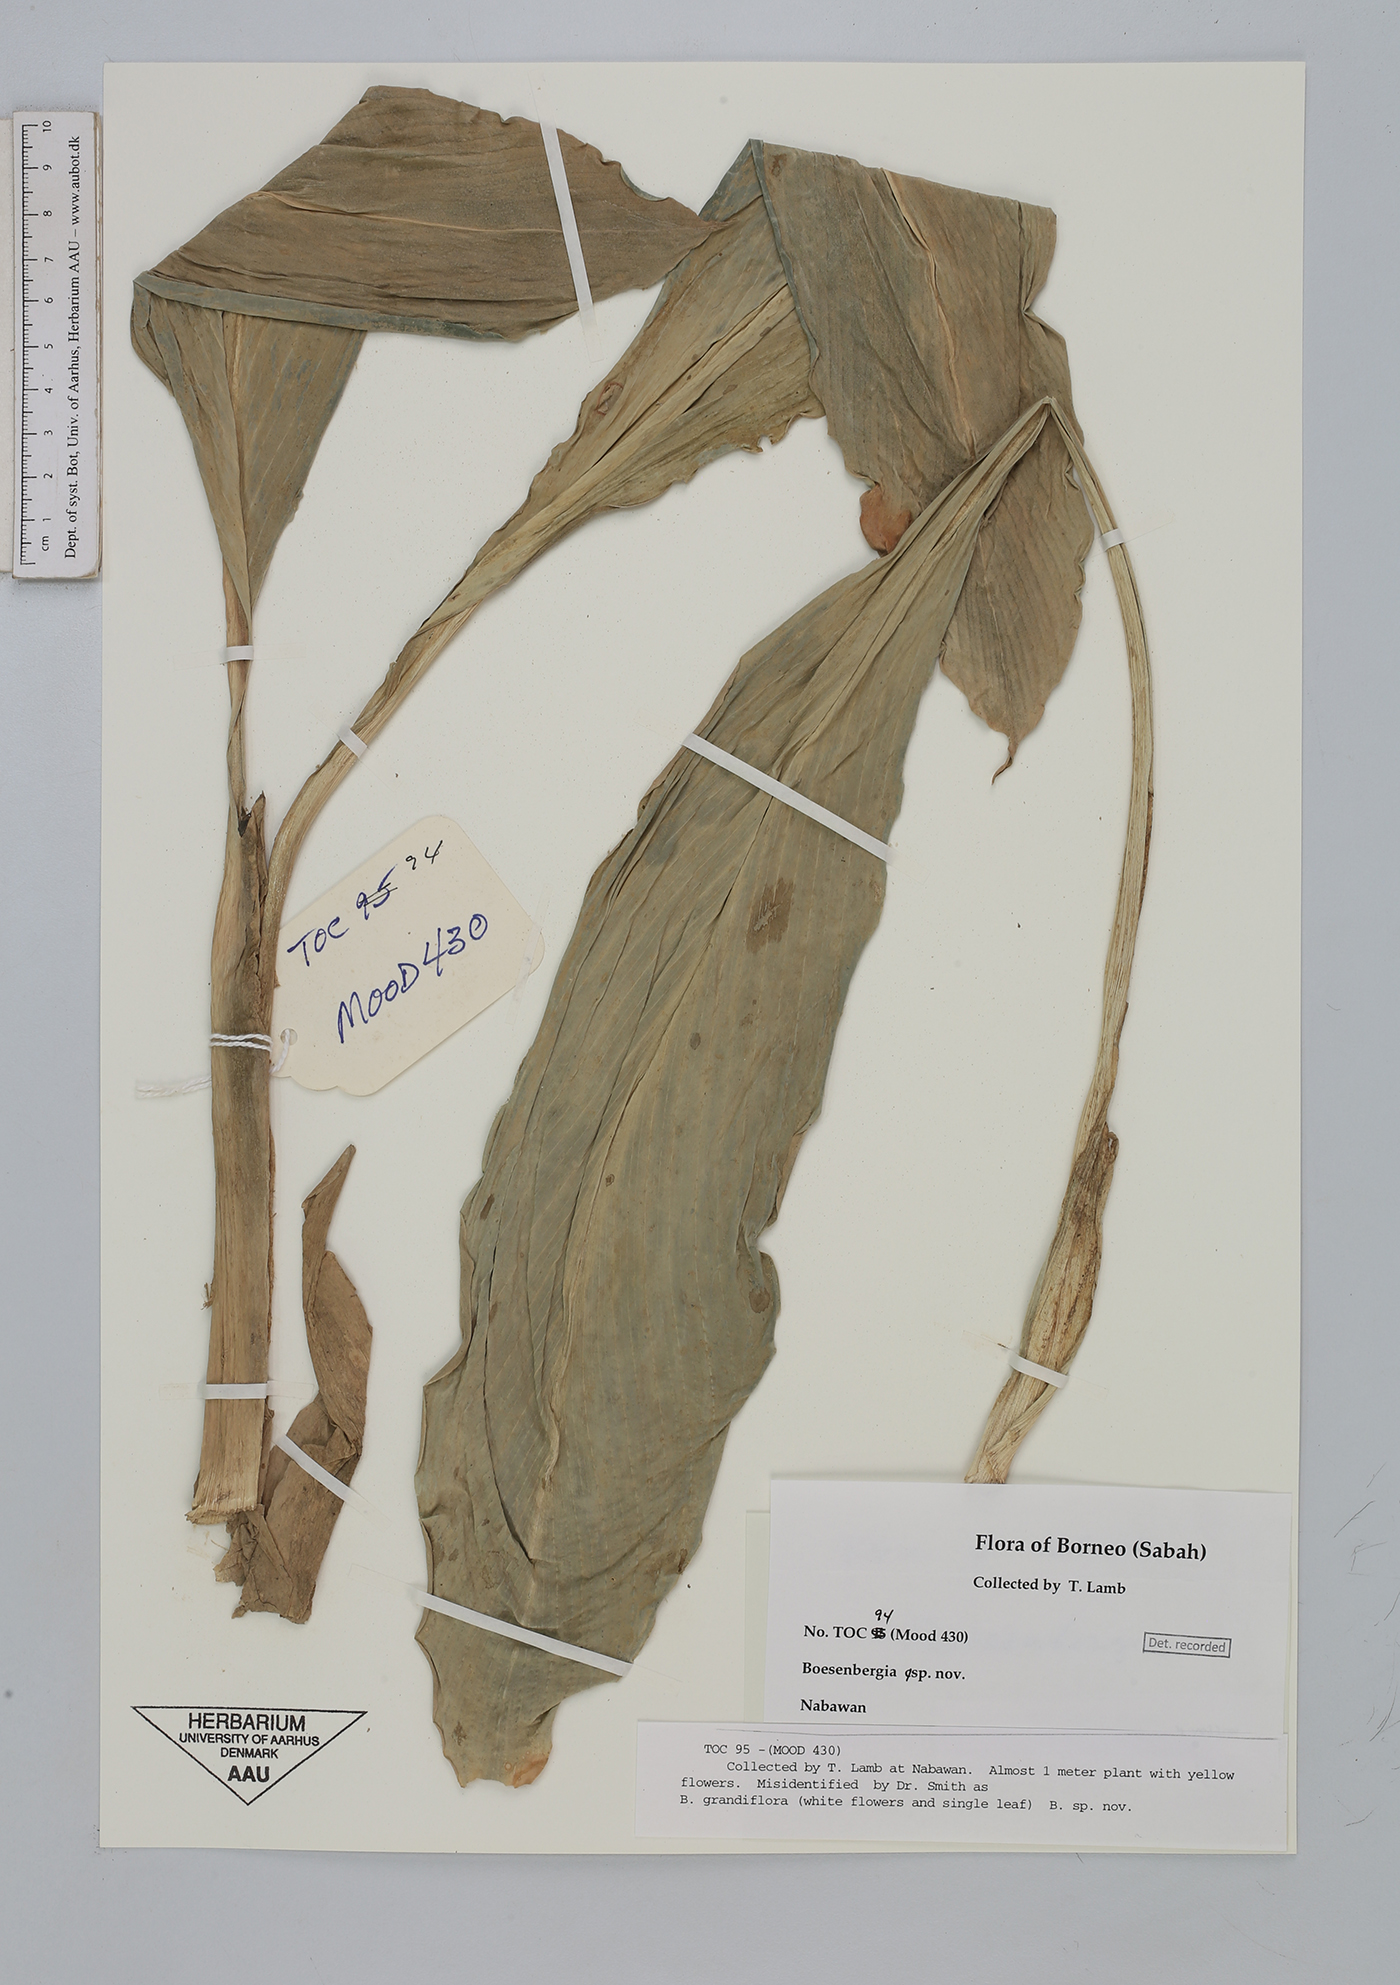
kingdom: Plantae
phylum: Tracheophyta
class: Liliopsida
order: Zingiberales
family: Zingiberaceae
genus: Boesenbergia
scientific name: Boesenbergia
